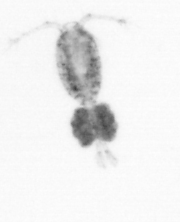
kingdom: Animalia
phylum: Arthropoda
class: Copepoda
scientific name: Copepoda
